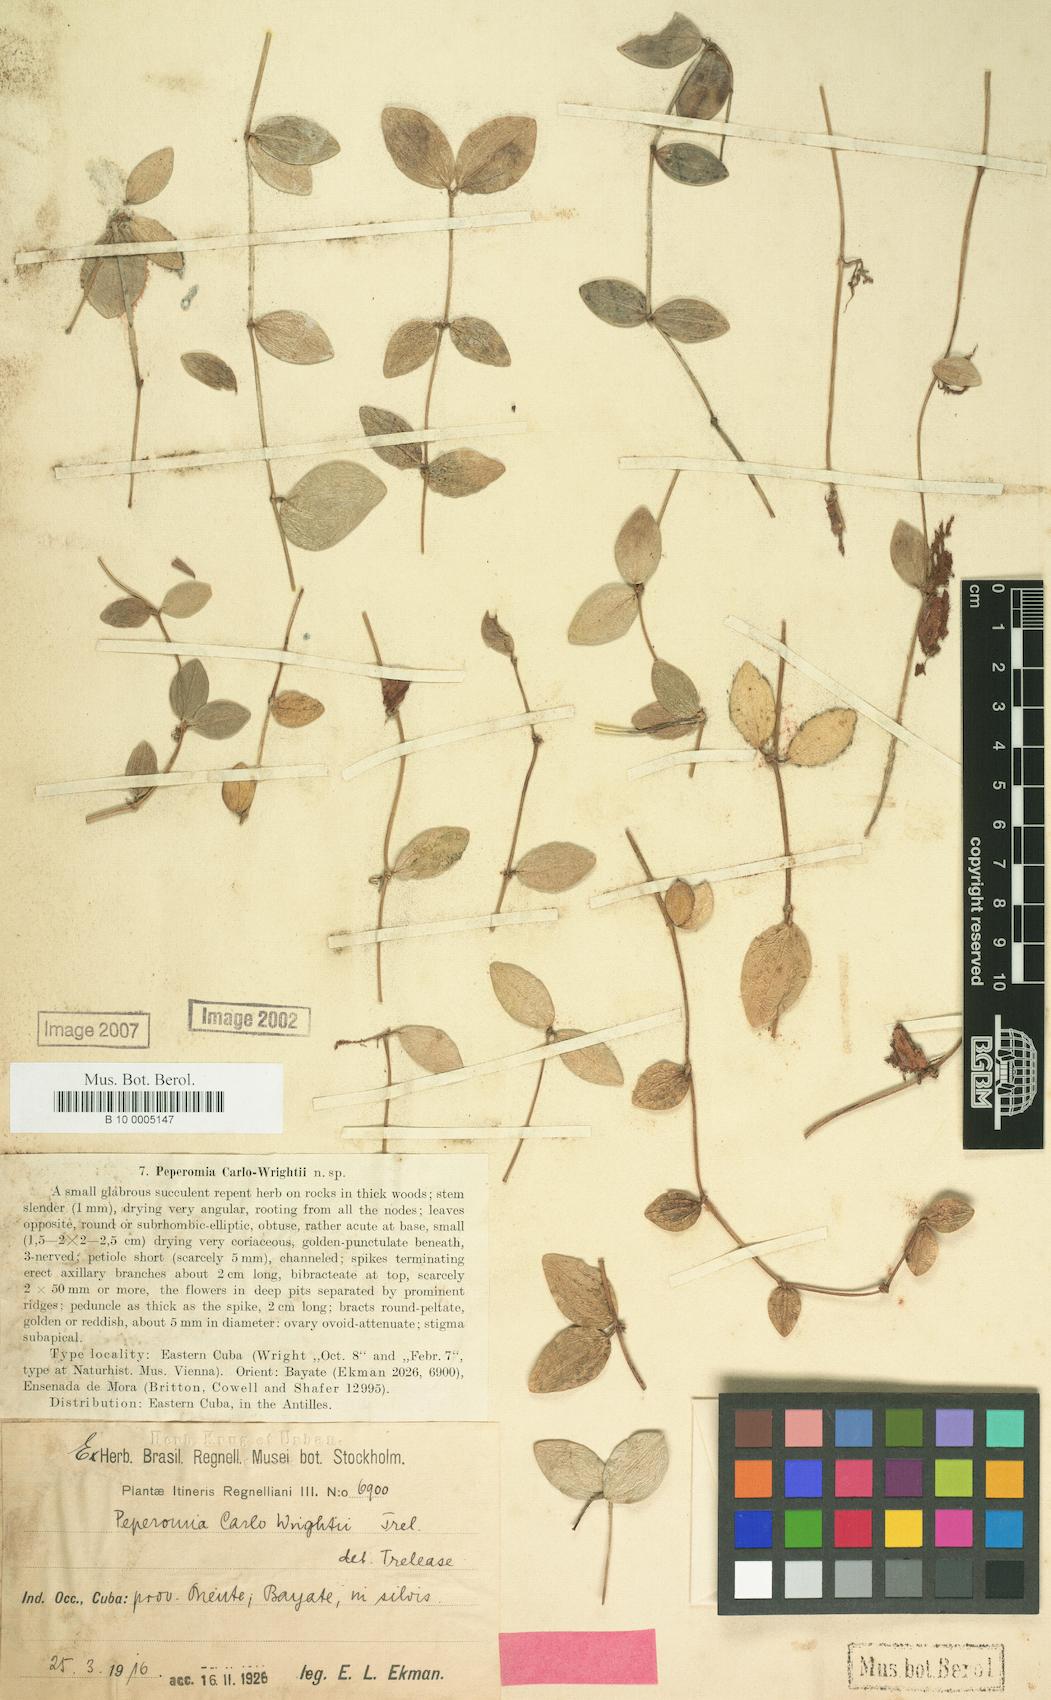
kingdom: Plantae
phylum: Tracheophyta
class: Magnoliopsida
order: Piperales
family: Piperaceae
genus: Peperomia
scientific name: Peperomia quadrangularis
